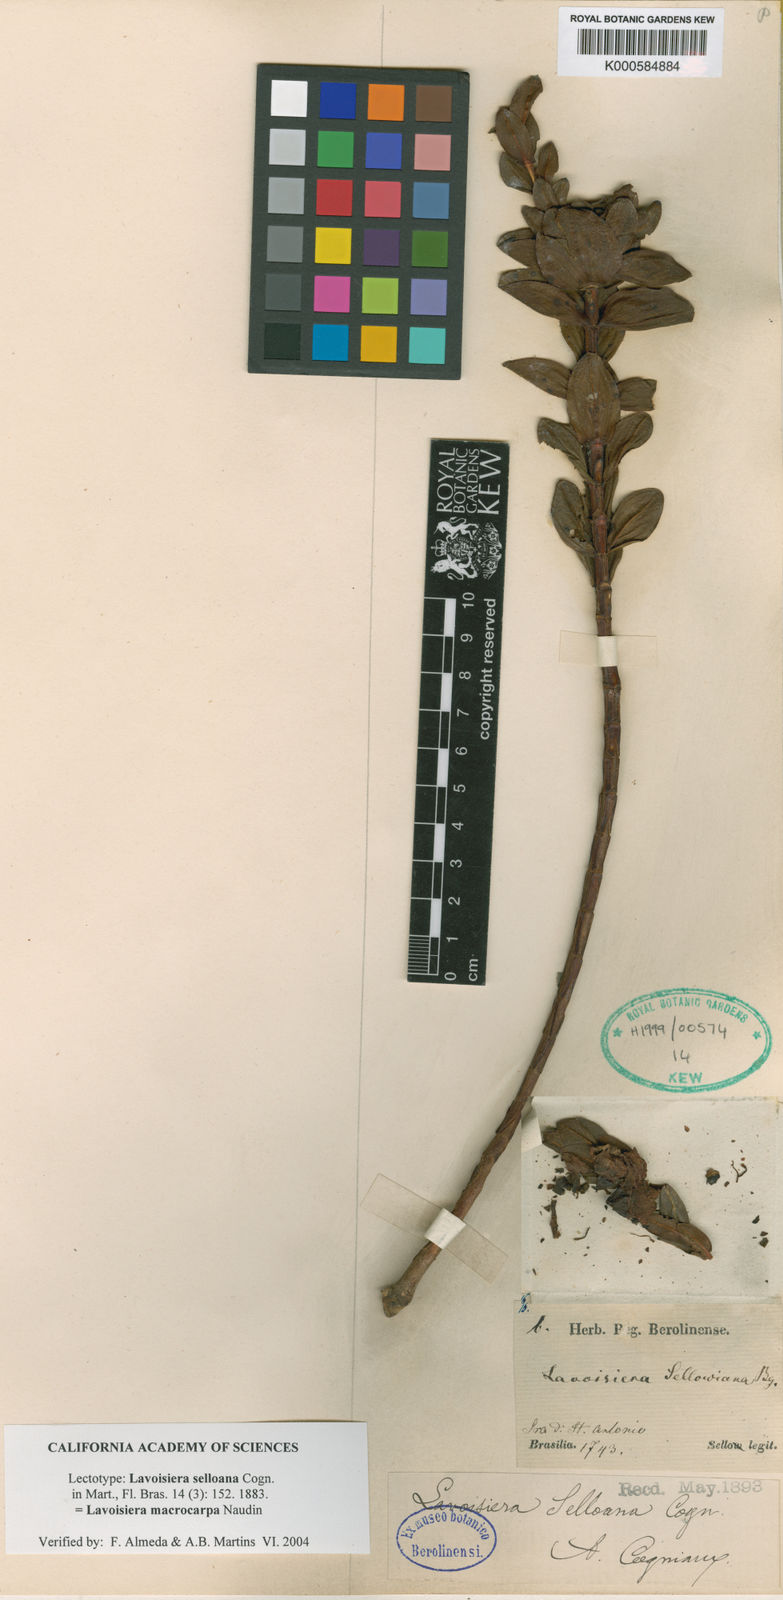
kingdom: Plantae
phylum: Tracheophyta
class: Magnoliopsida
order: Myrtales
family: Melastomataceae
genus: Microlicia
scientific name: Microlicia macrocarpa
